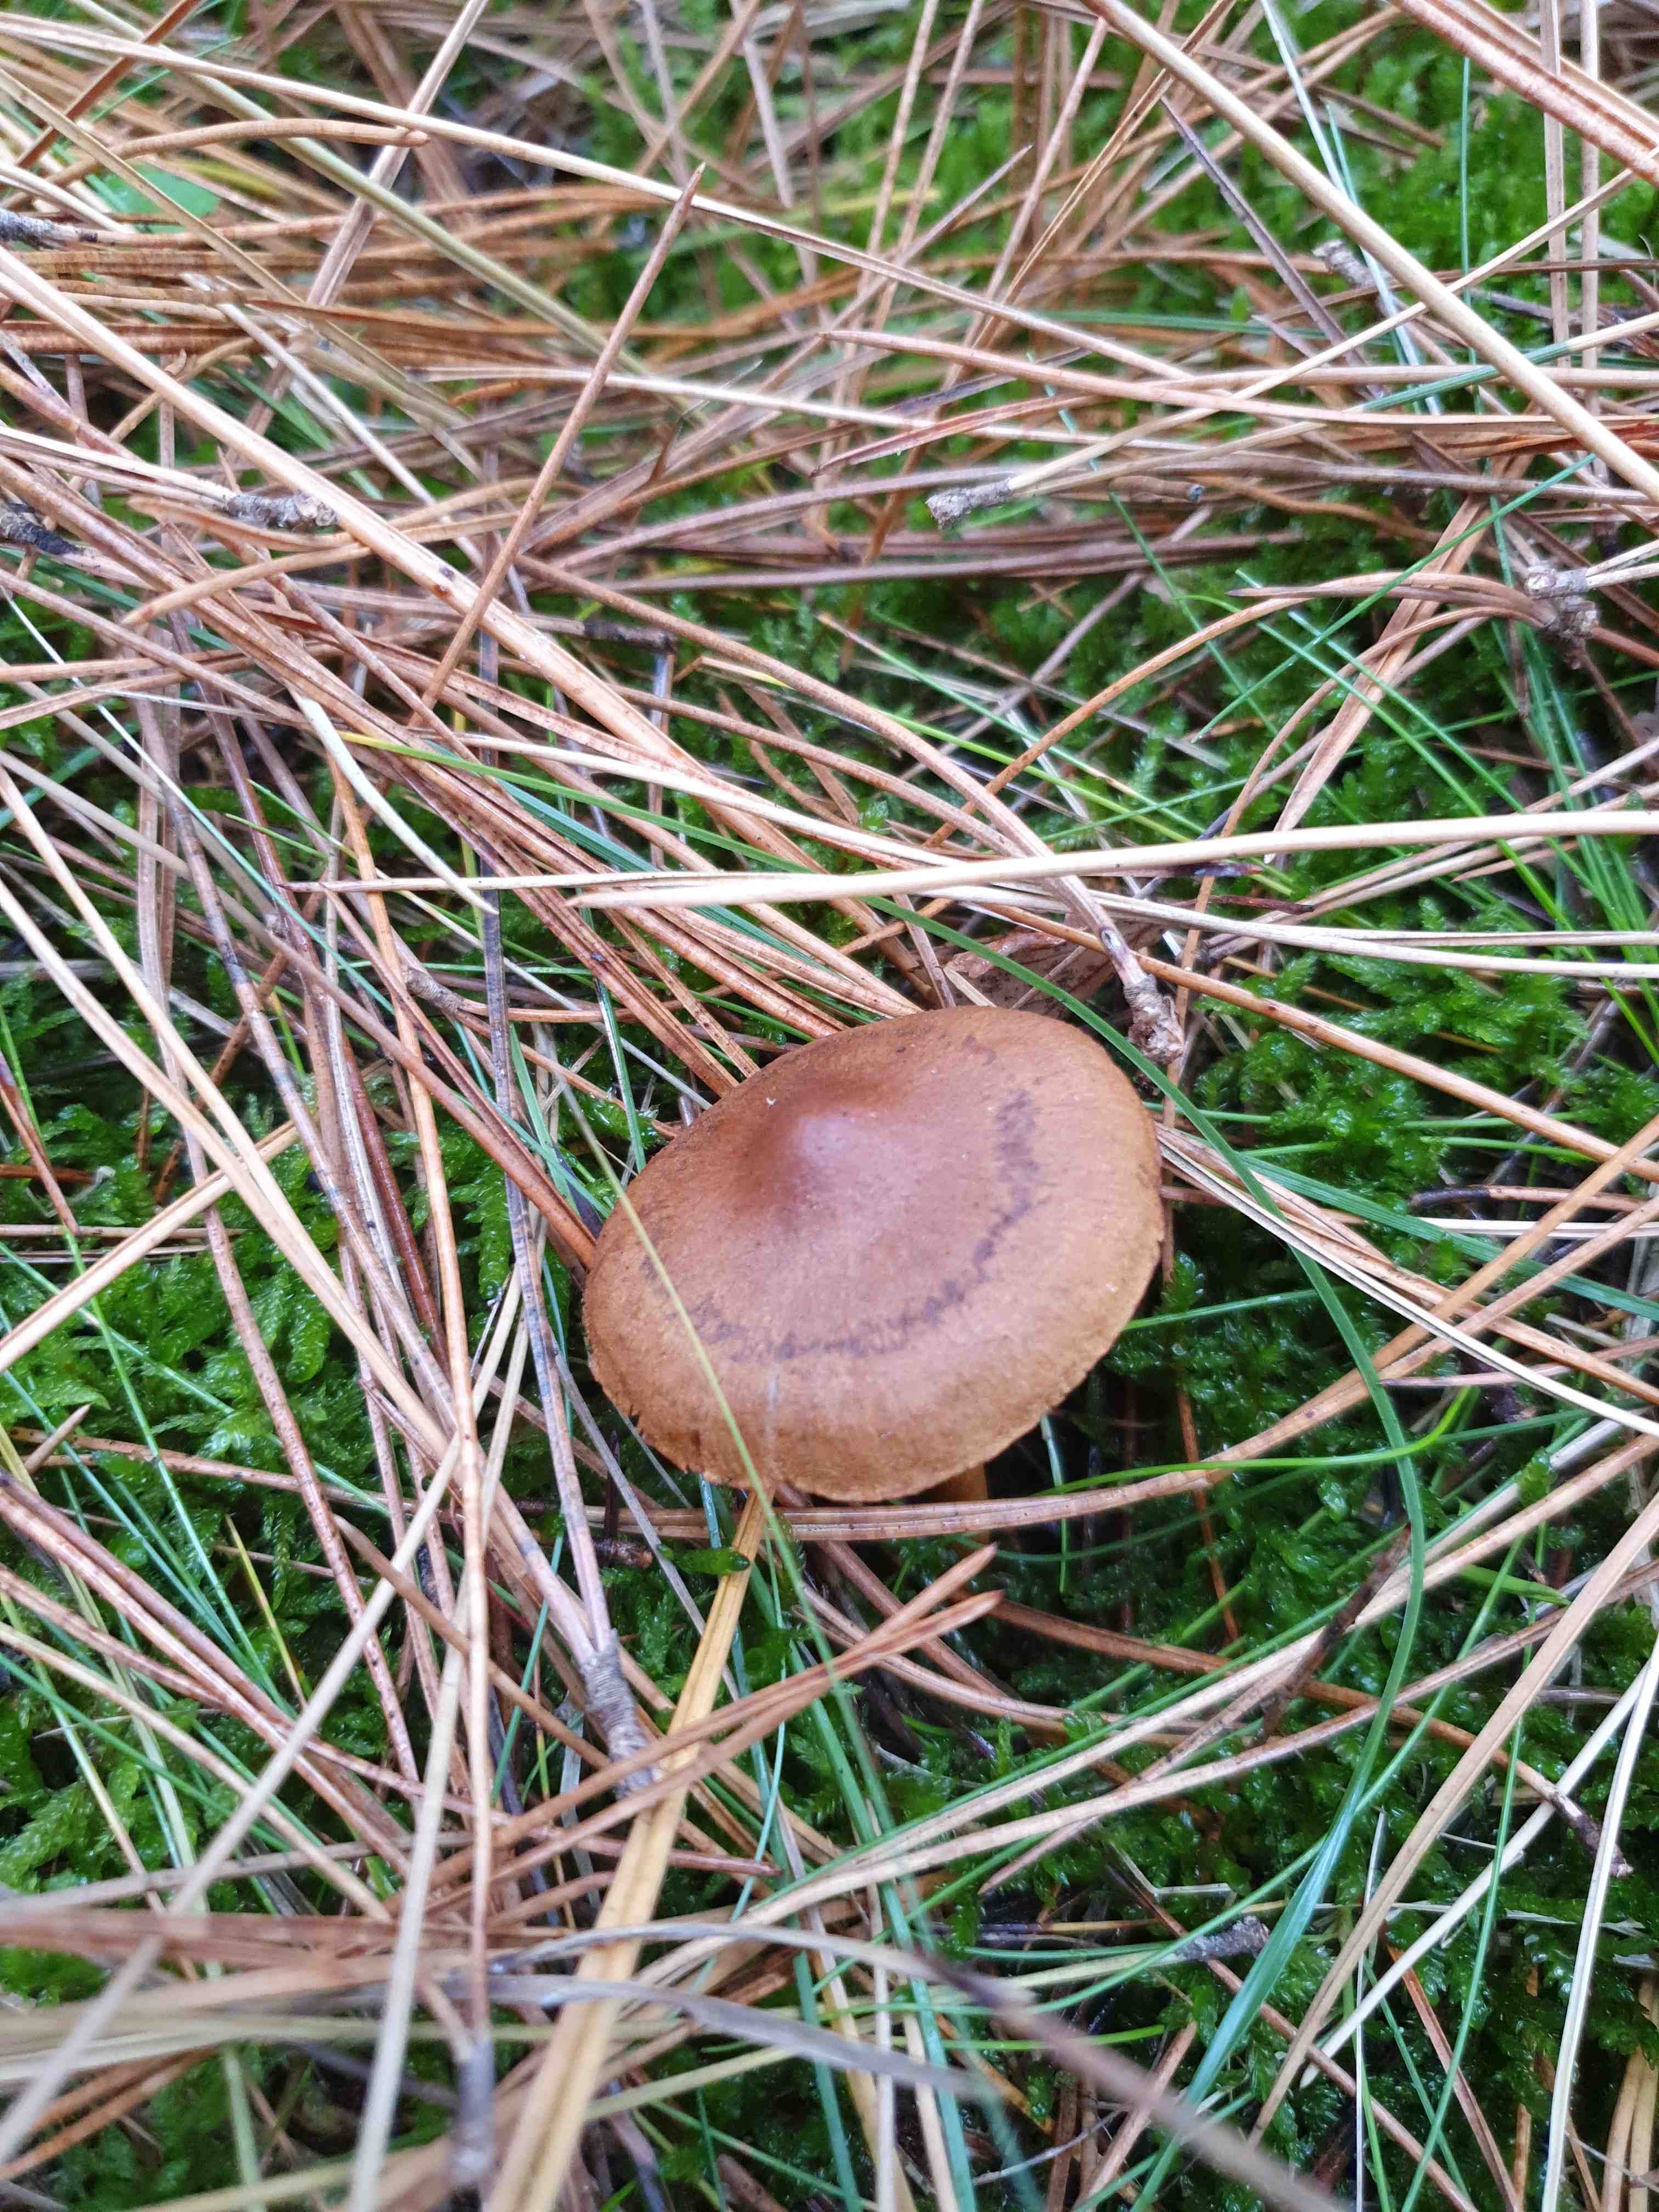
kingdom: Fungi
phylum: Basidiomycota
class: Agaricomycetes
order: Agaricales
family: Cortinariaceae
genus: Cortinarius
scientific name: Cortinarius
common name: cinnoberbladet slørhat
